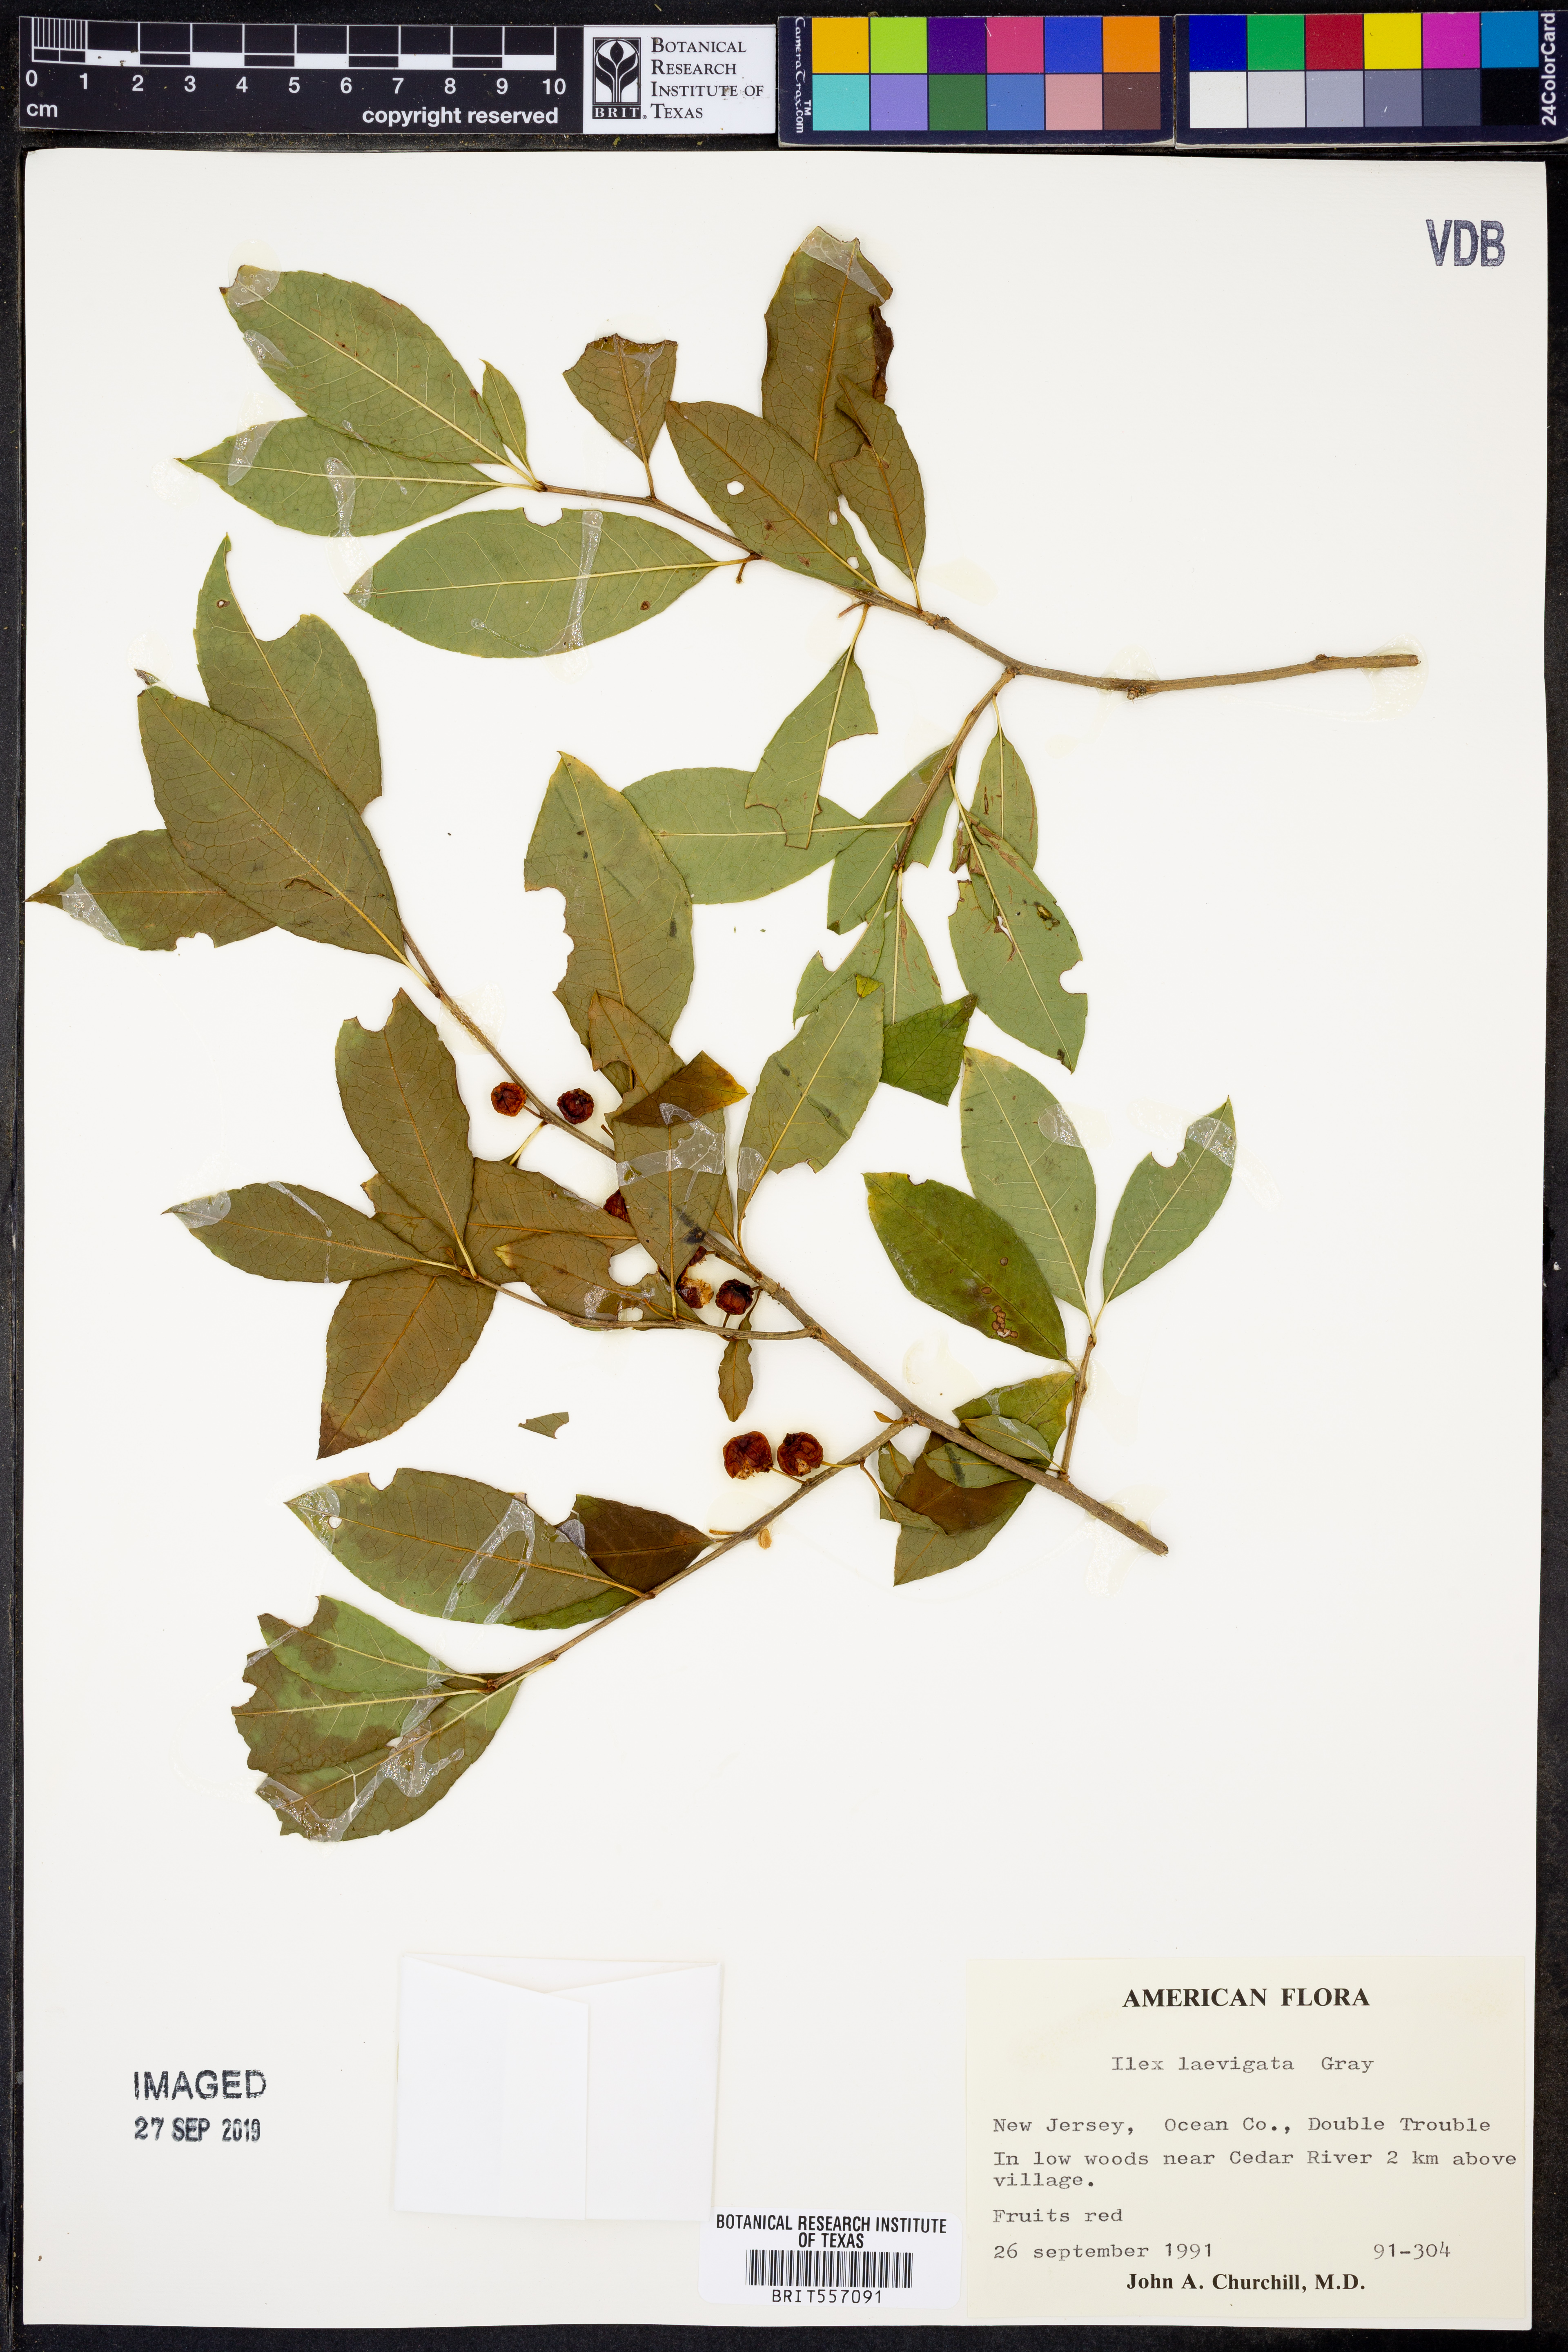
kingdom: Plantae
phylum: Tracheophyta
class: Magnoliopsida
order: Aquifoliales
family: Aquifoliaceae
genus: Ilex
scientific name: Ilex laevigata
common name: Smooth winterberry
